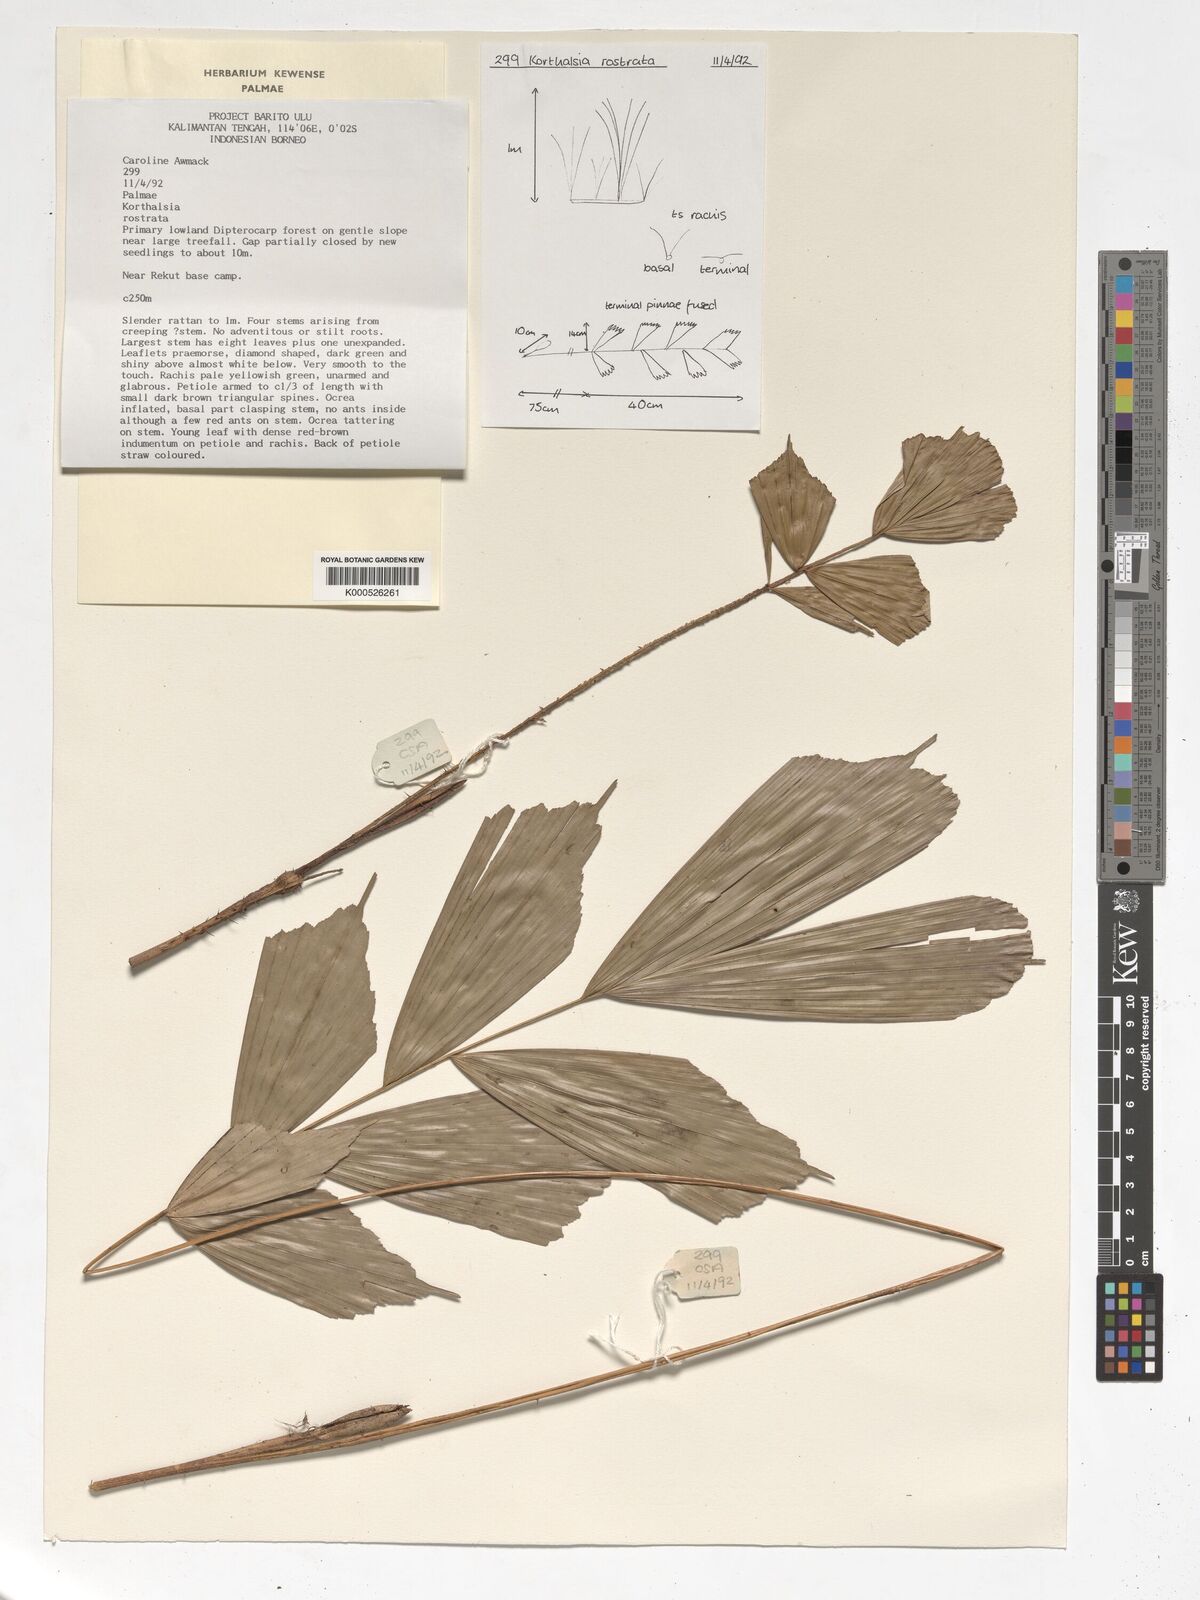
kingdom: Plantae
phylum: Tracheophyta
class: Liliopsida
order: Arecales
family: Arecaceae
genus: Korthalsia
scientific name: Korthalsia rostrata
